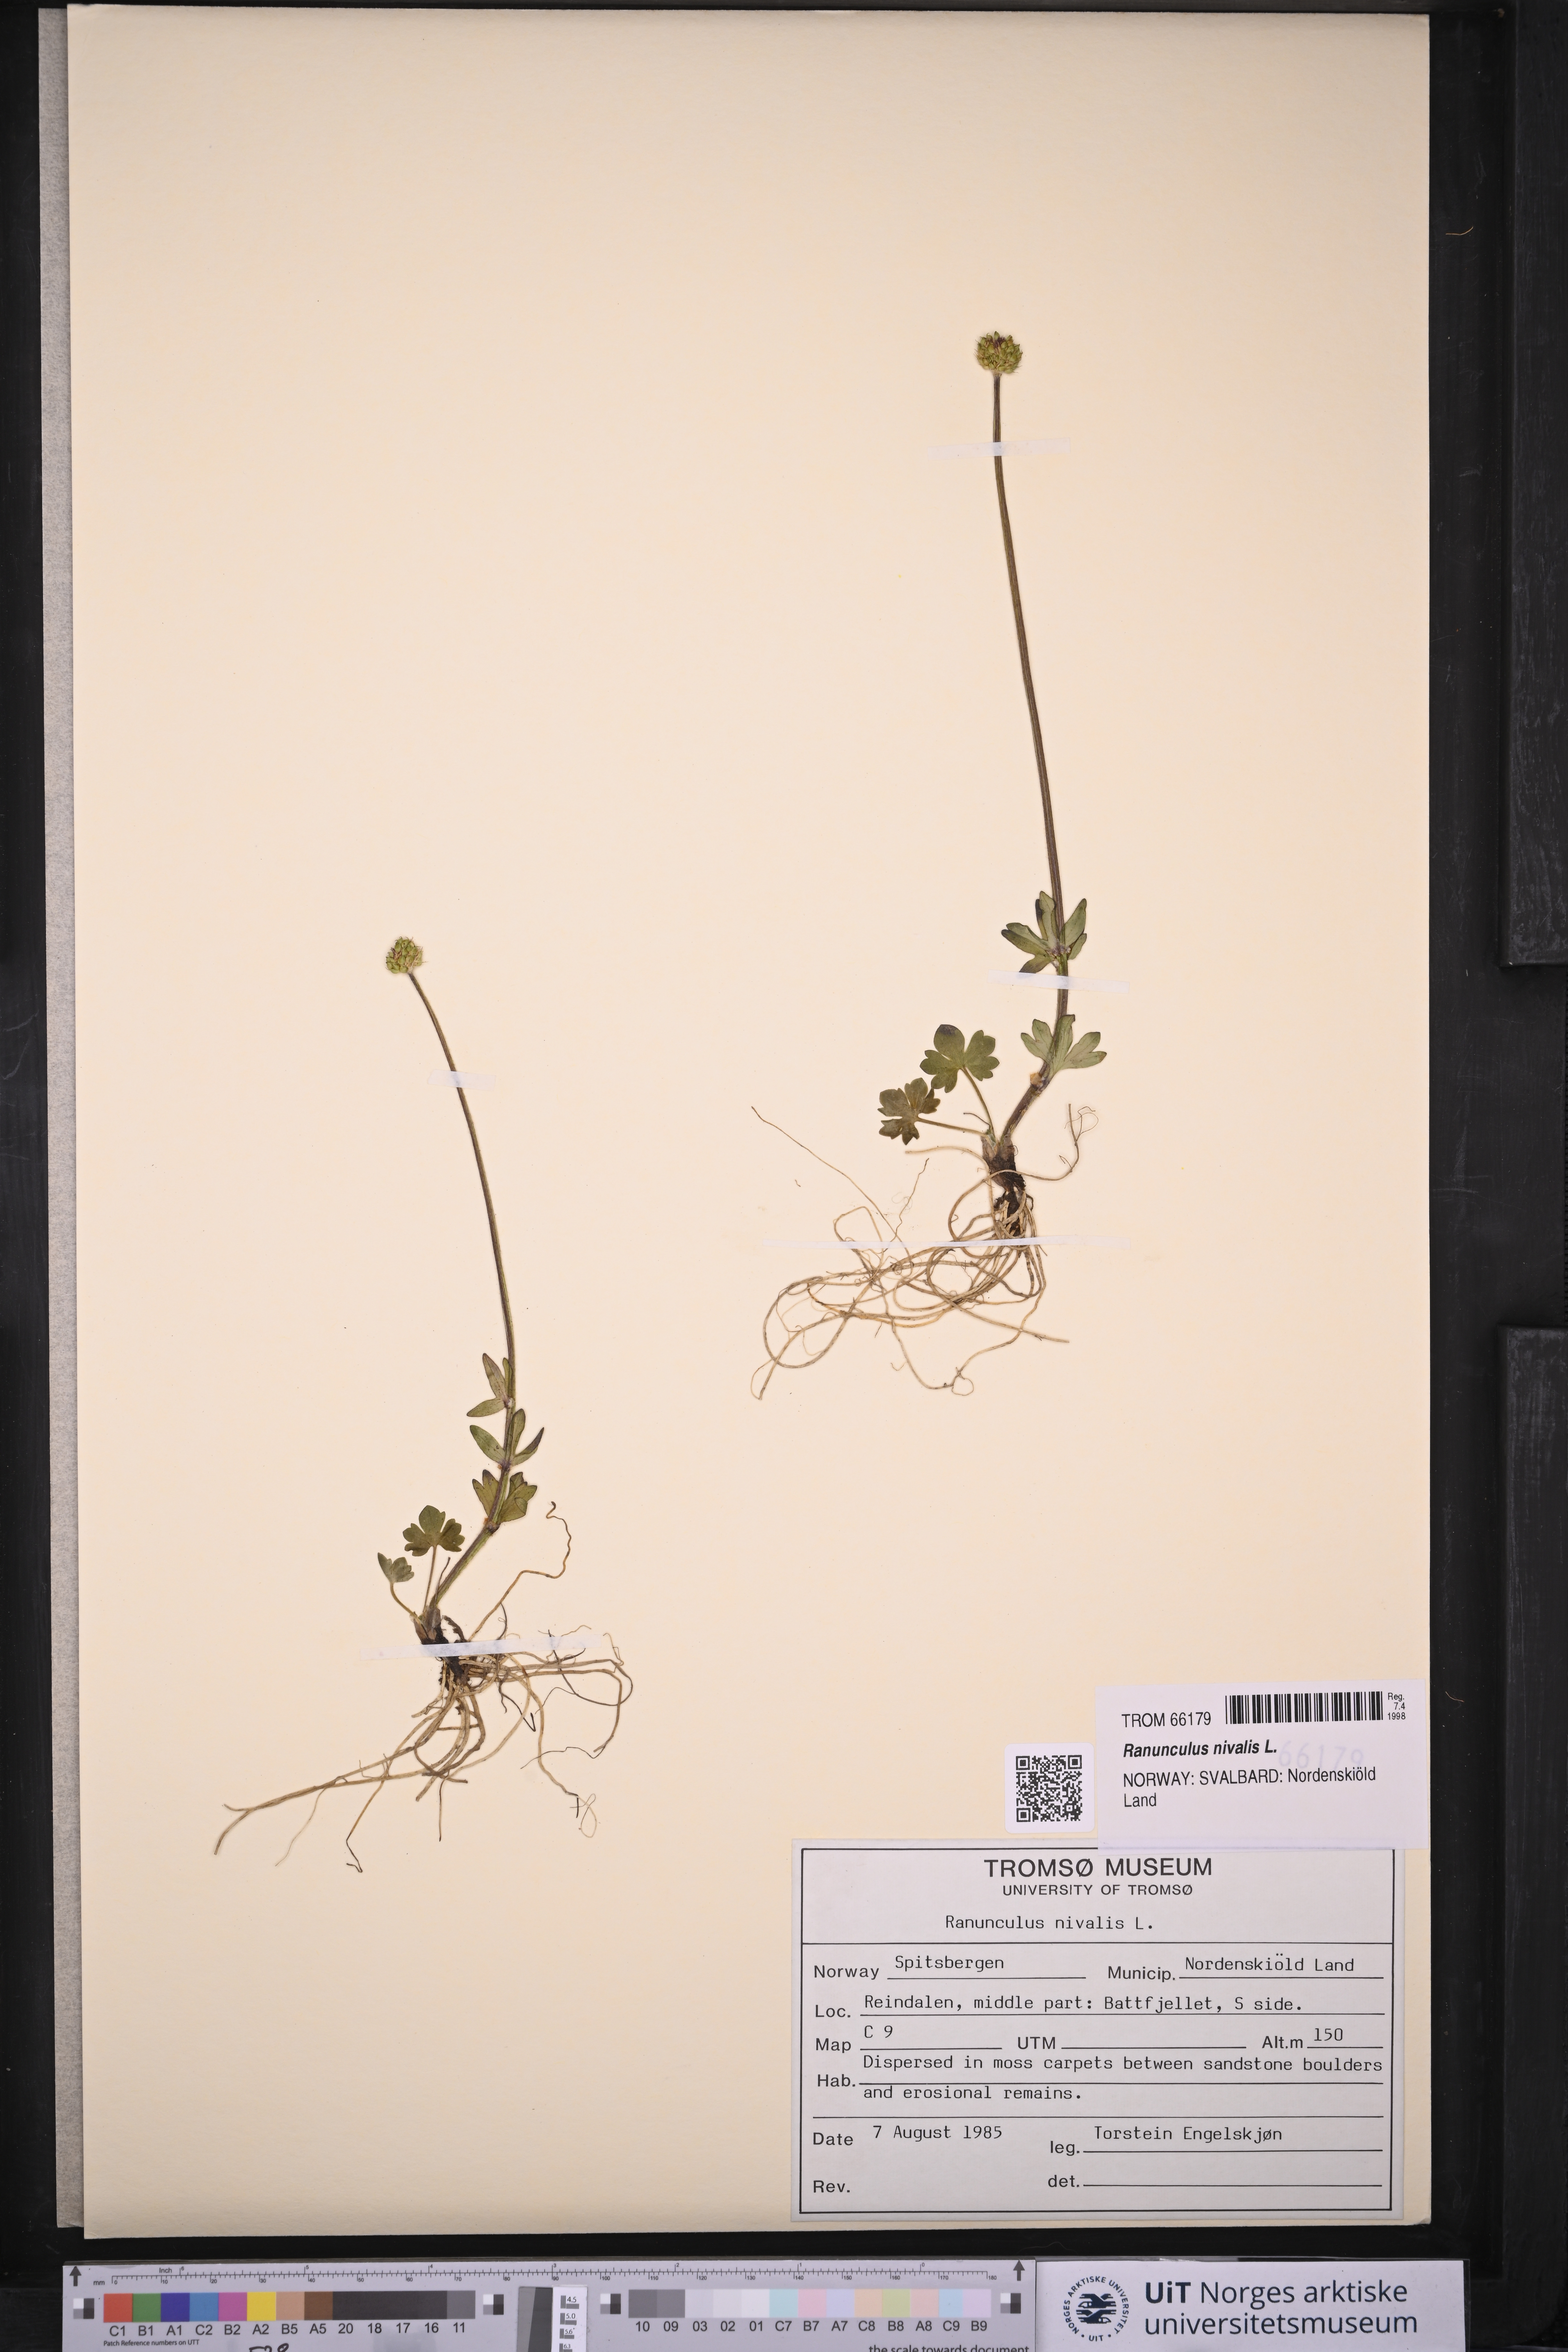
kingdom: Plantae
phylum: Tracheophyta
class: Magnoliopsida
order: Ranunculales
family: Ranunculaceae
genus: Ranunculus
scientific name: Ranunculus nivalis
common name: Snow buttercup
